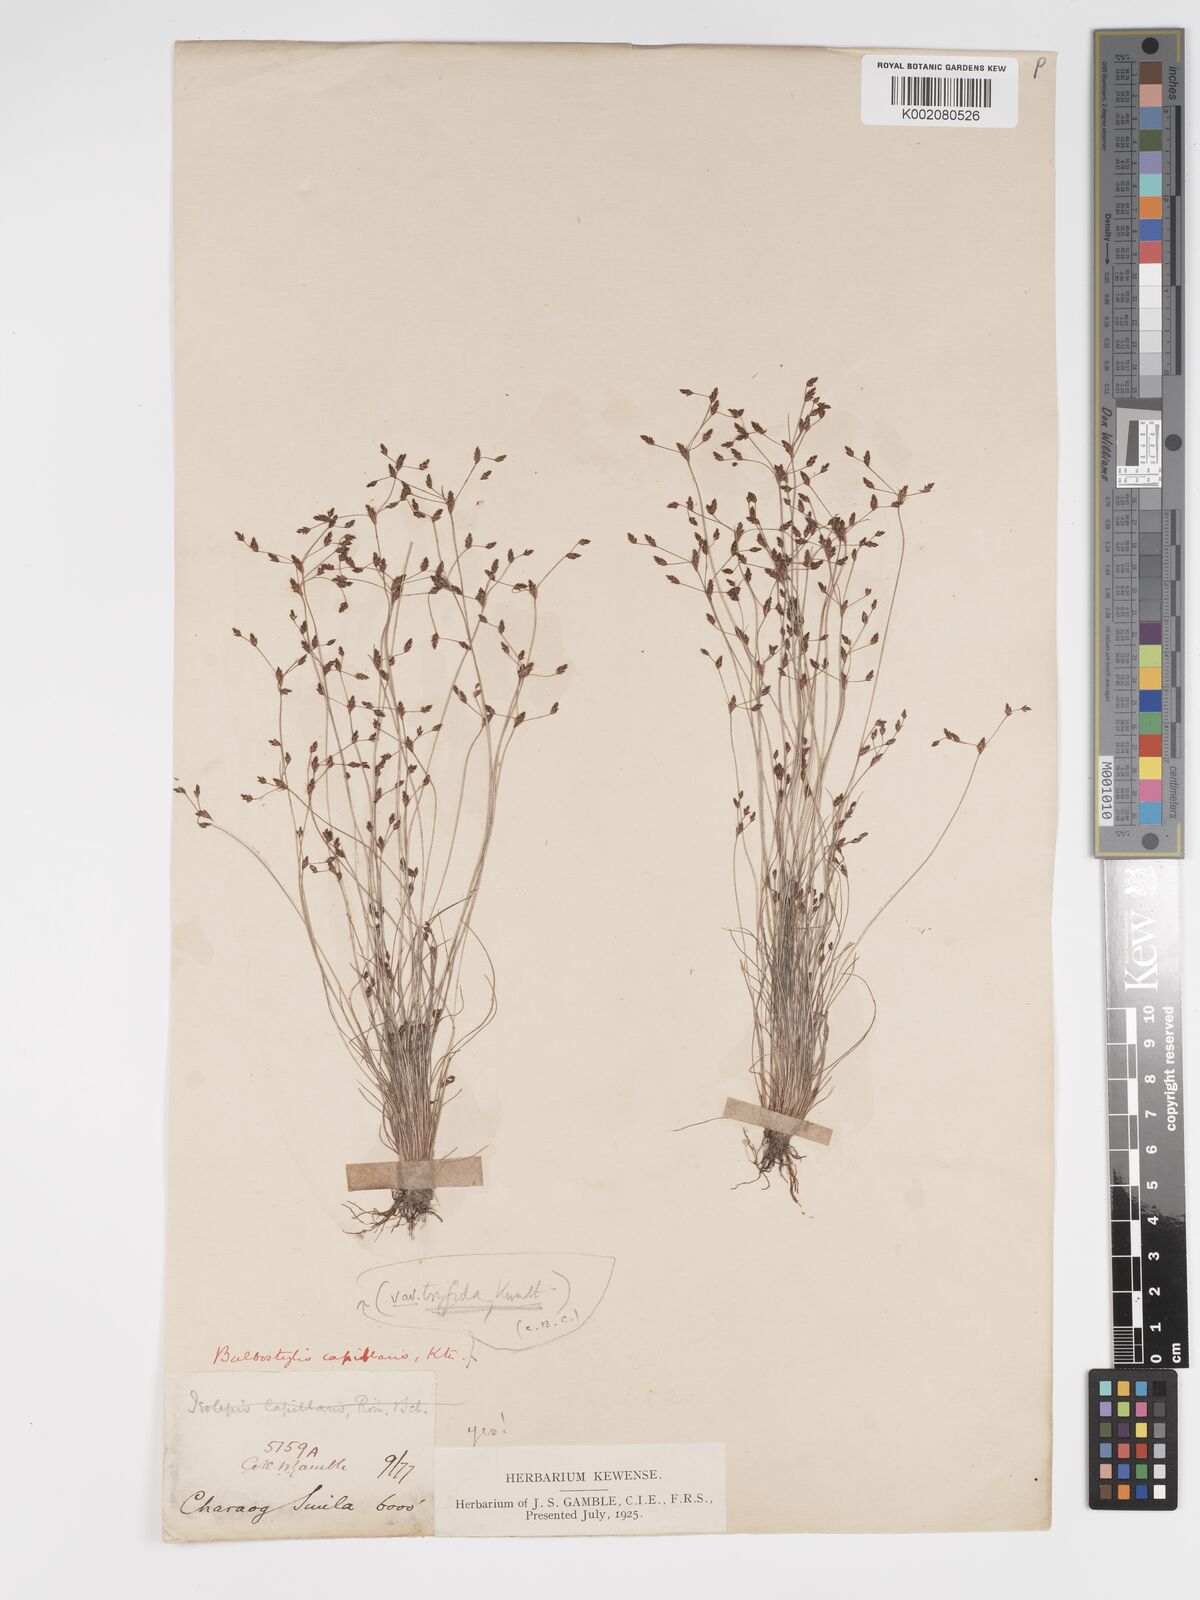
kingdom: Plantae
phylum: Tracheophyta
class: Liliopsida
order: Poales
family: Cyperaceae
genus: Bulbostylis
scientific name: Bulbostylis capillaris
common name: Densetuft hairsedge
